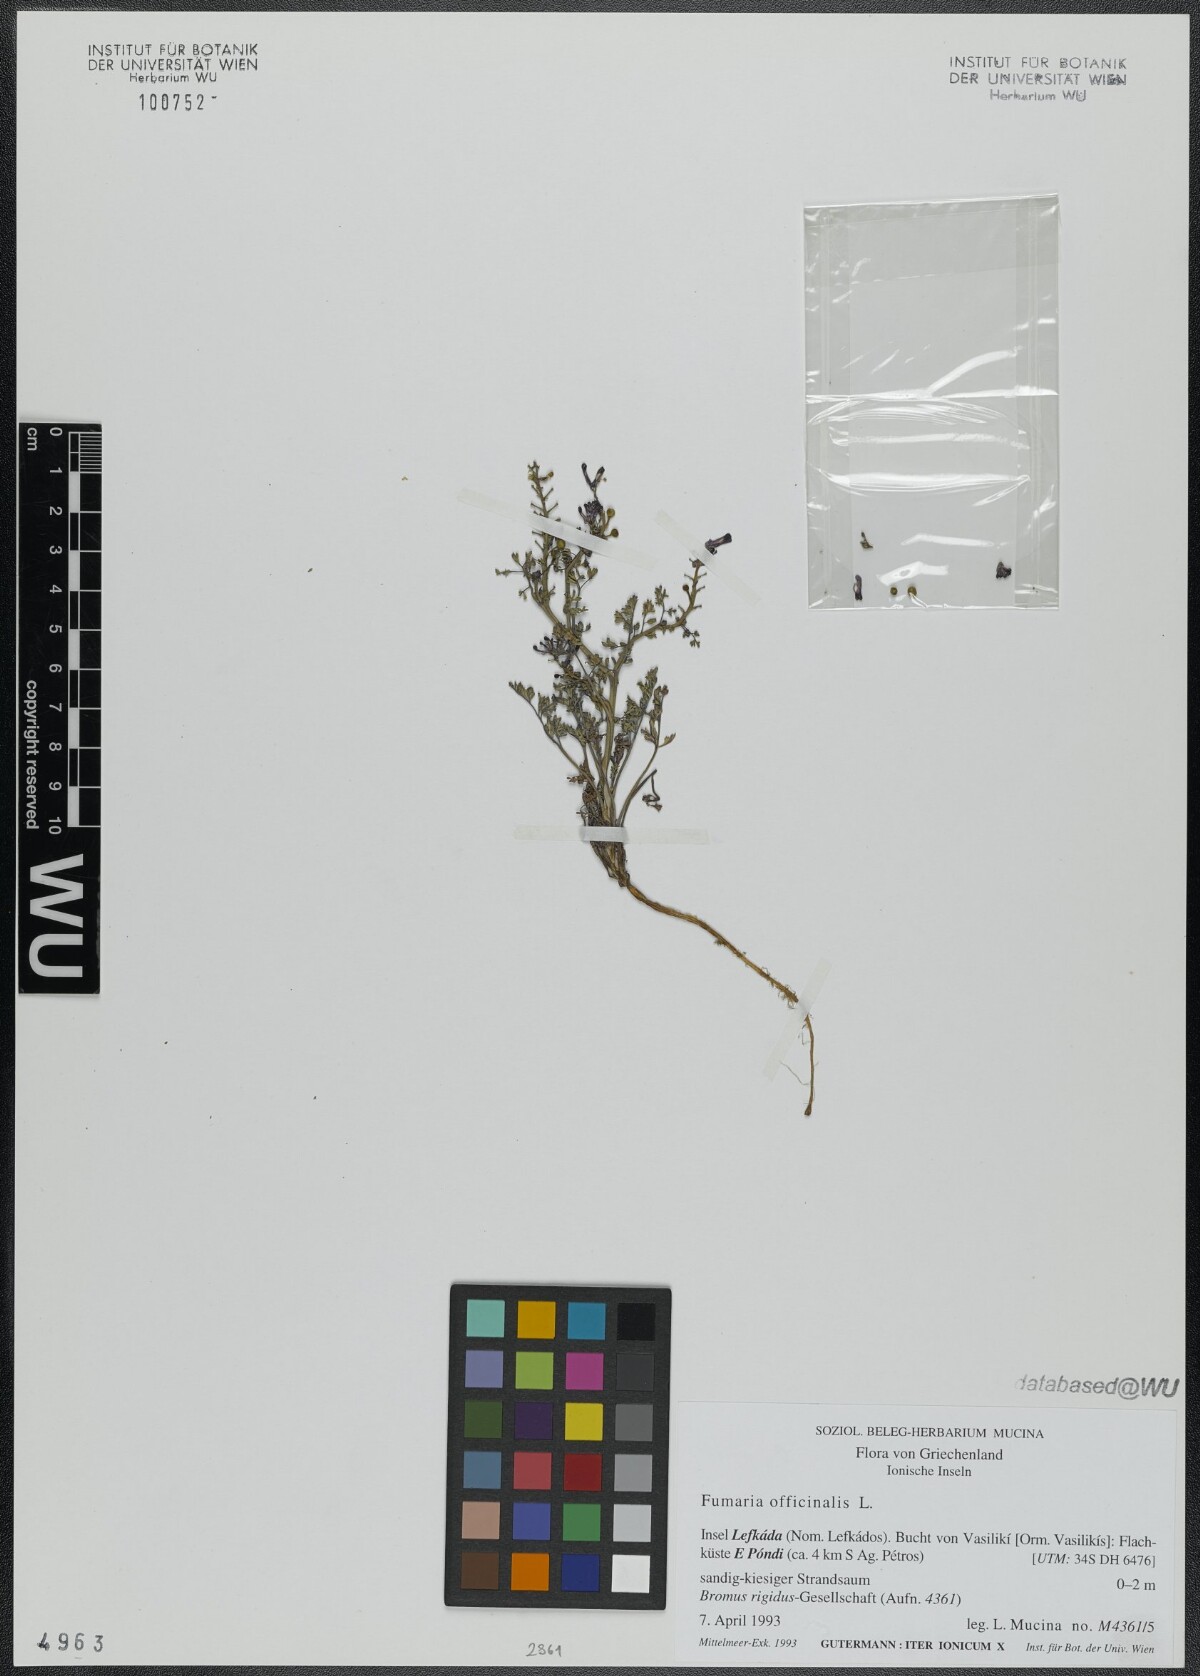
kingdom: Plantae
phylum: Tracheophyta
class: Magnoliopsida
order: Ranunculales
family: Papaveraceae
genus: Fumaria
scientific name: Fumaria officinalis
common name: Common fumitory
